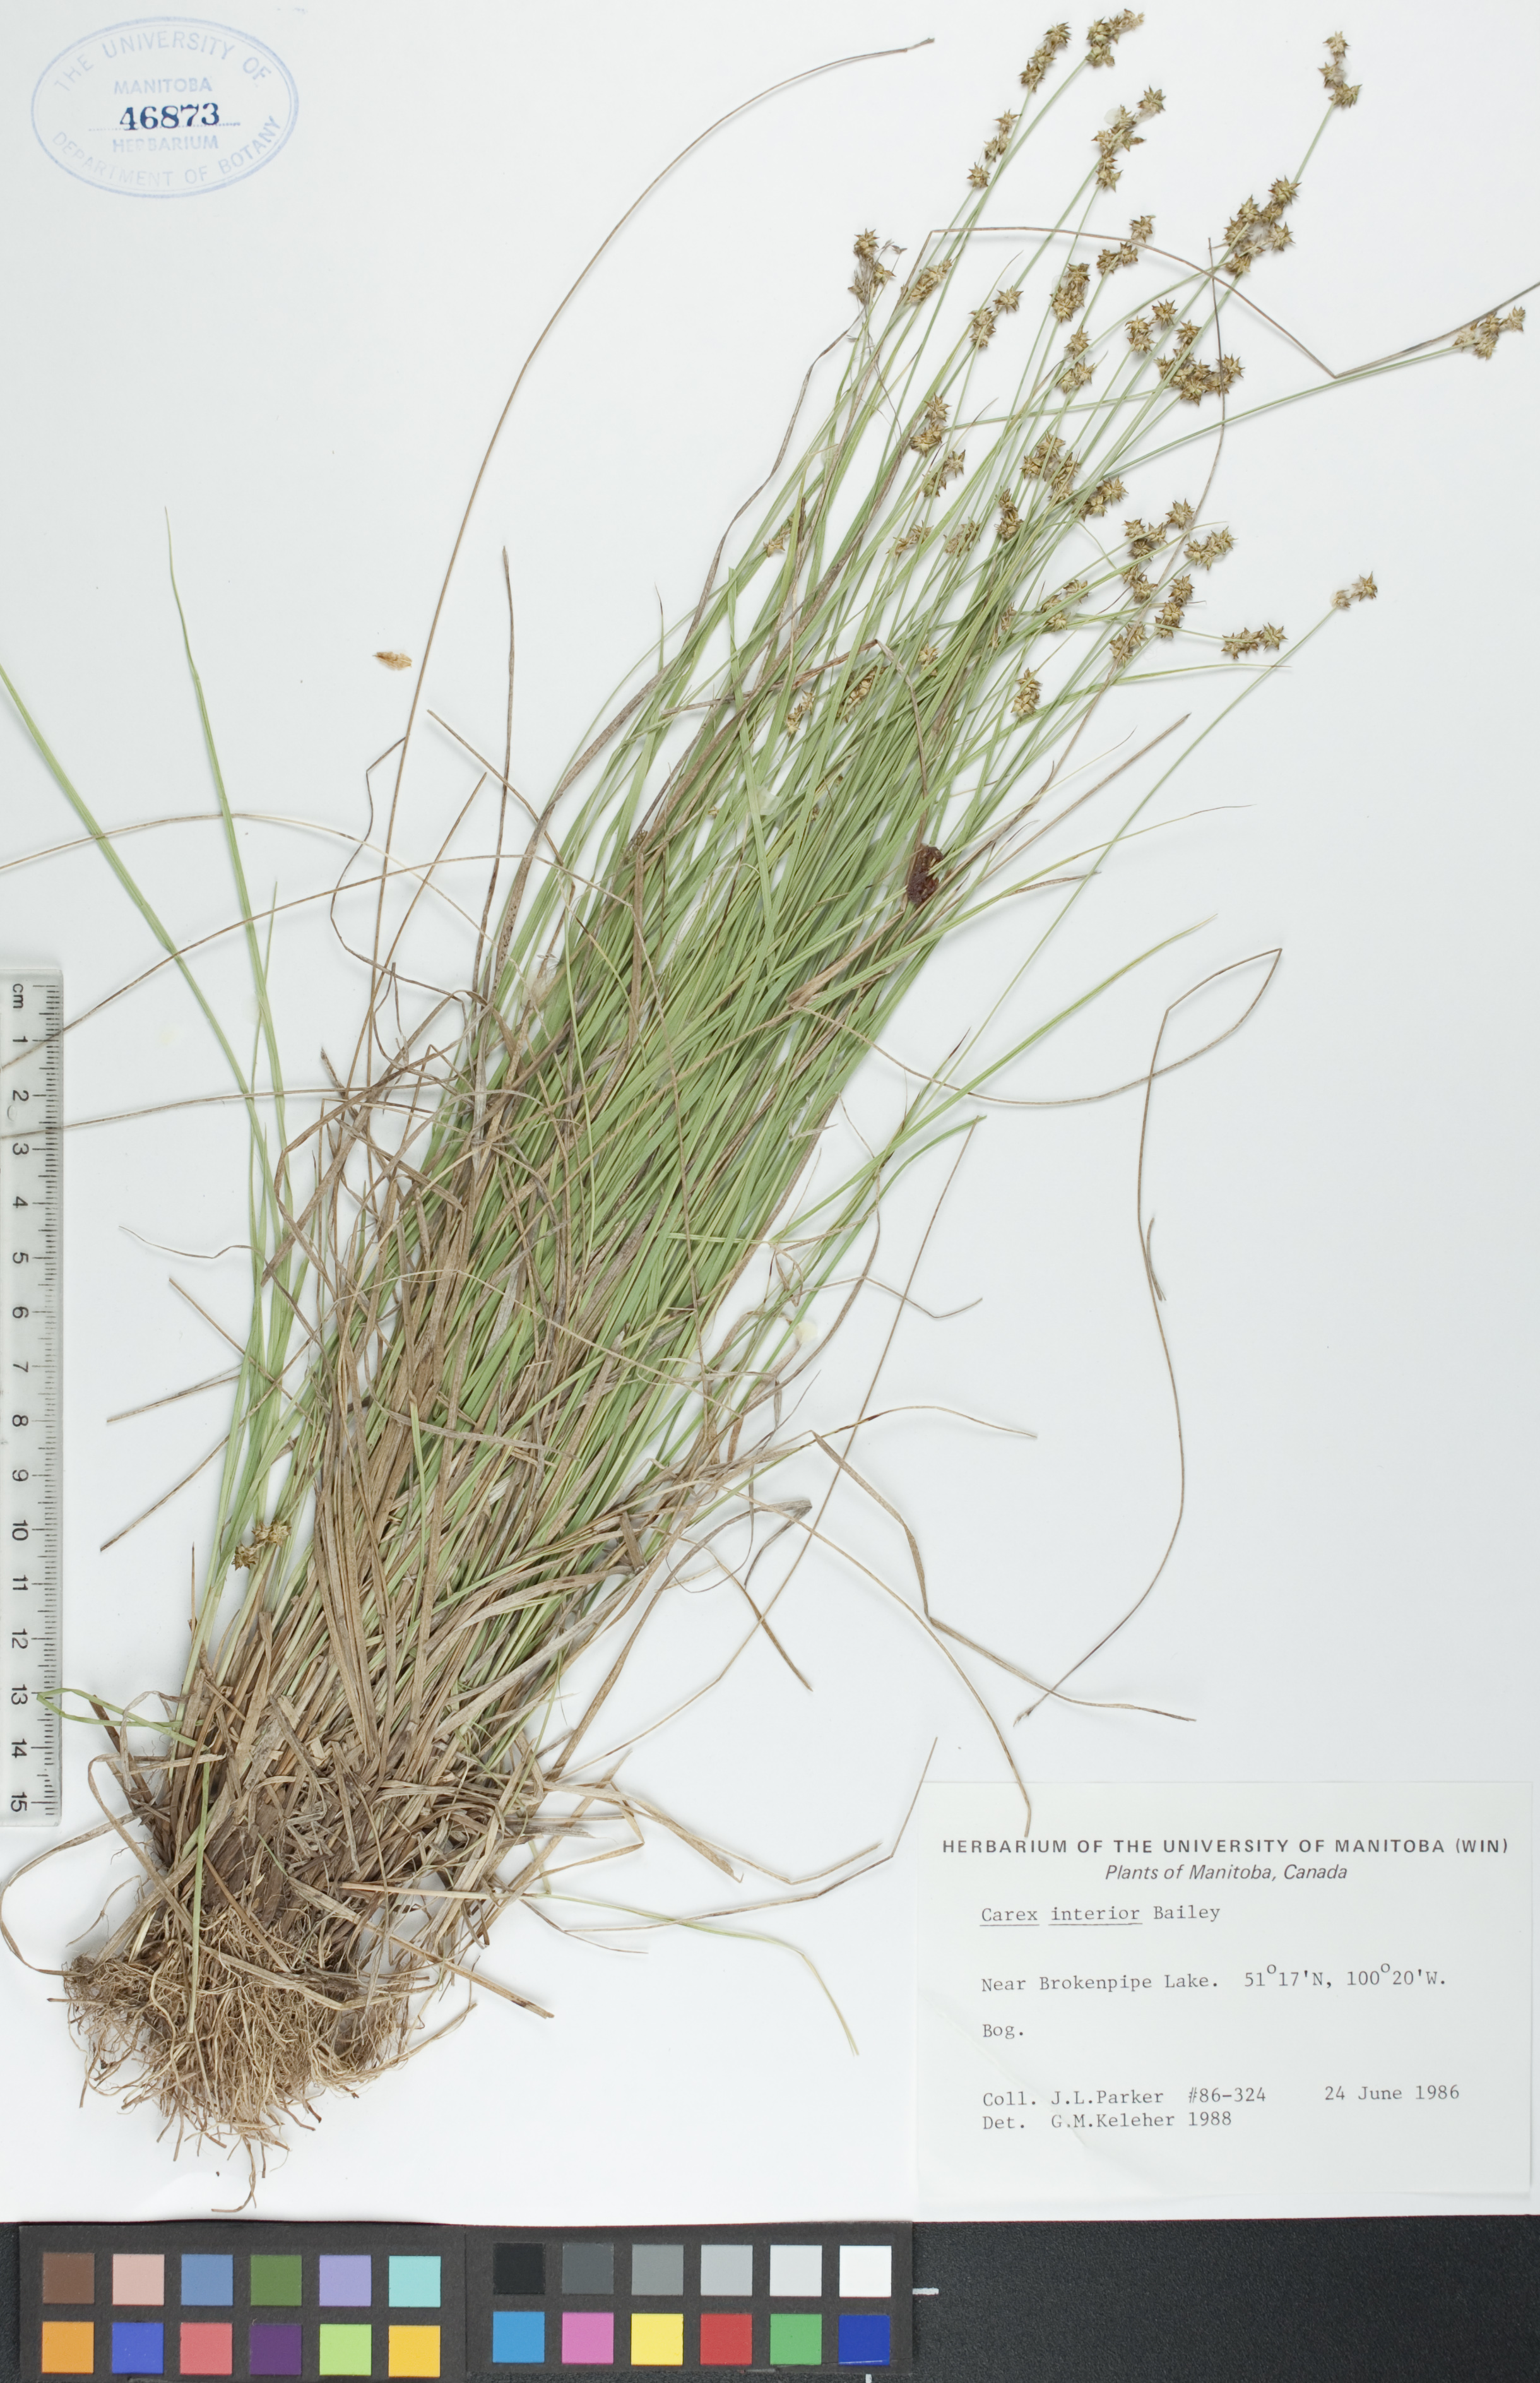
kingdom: Plantae
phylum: Tracheophyta
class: Liliopsida
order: Poales
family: Cyperaceae
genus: Carex
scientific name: Carex interior
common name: Inland sedge
